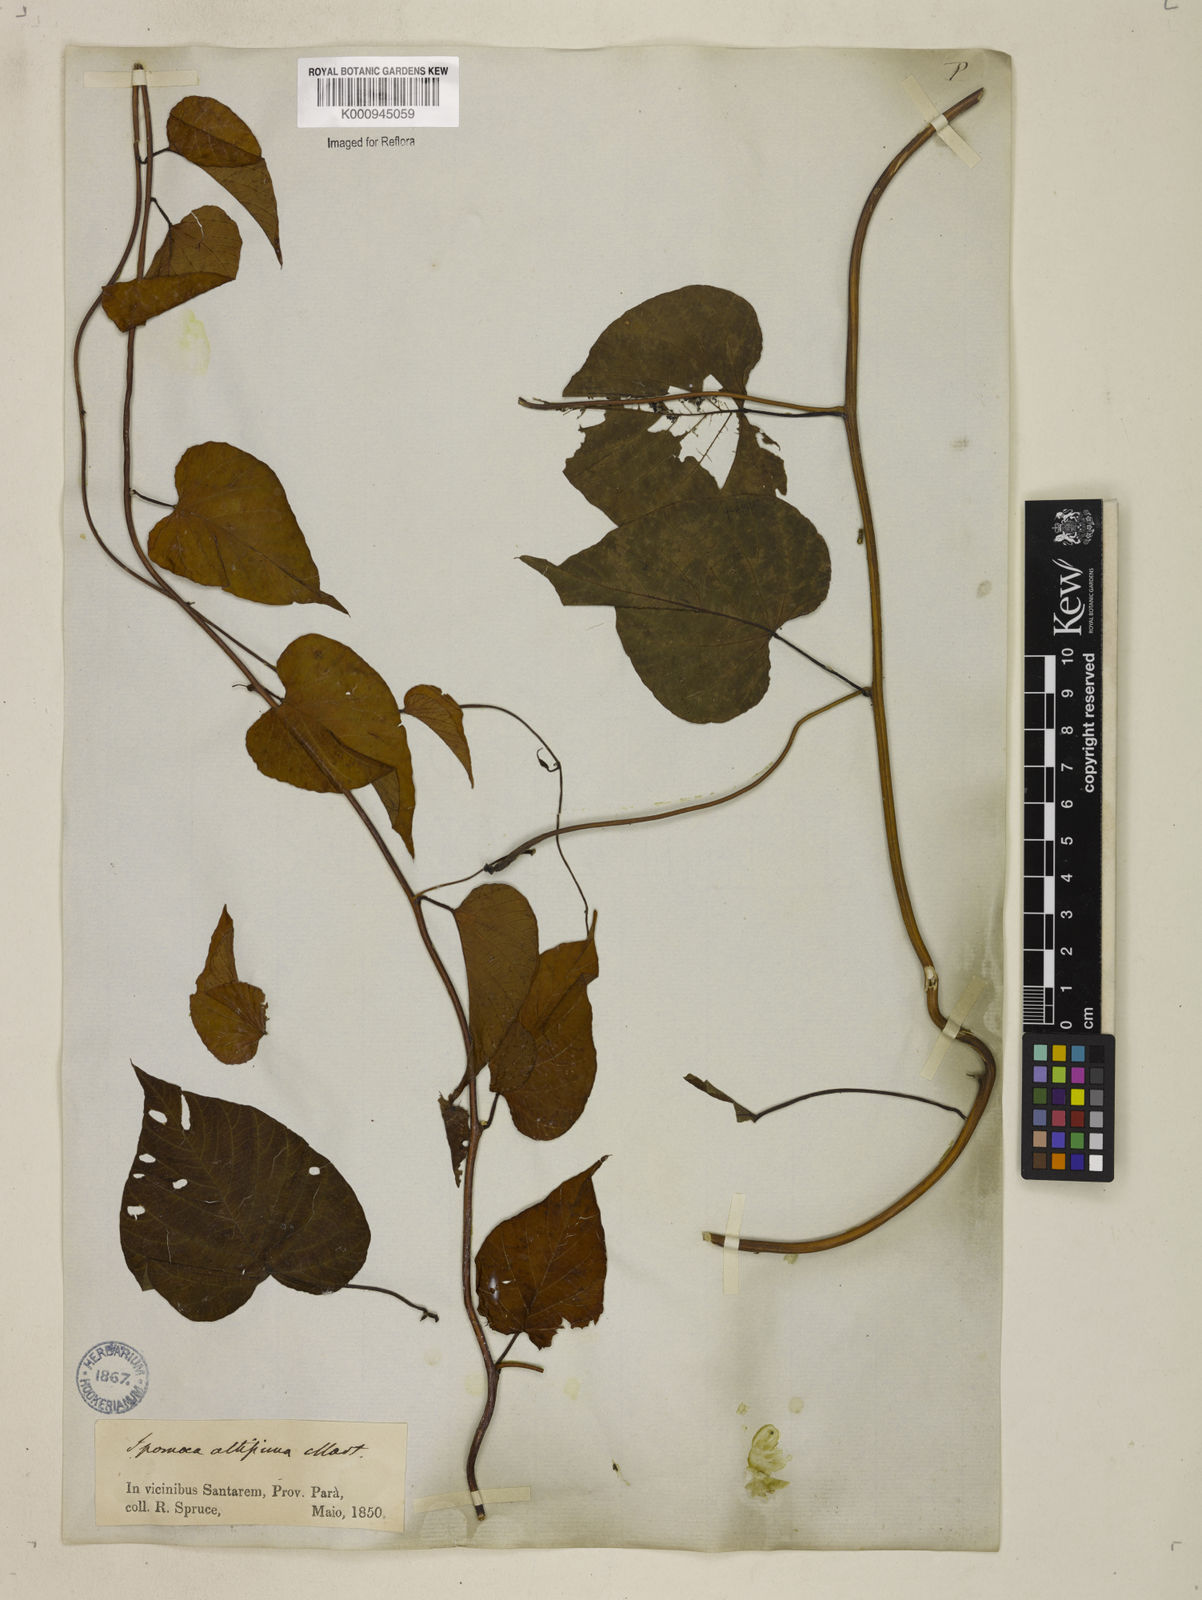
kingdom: Plantae
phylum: Tracheophyta
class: Magnoliopsida
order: Solanales
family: Convolvulaceae
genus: Operculina
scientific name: Operculina hamiltonii
